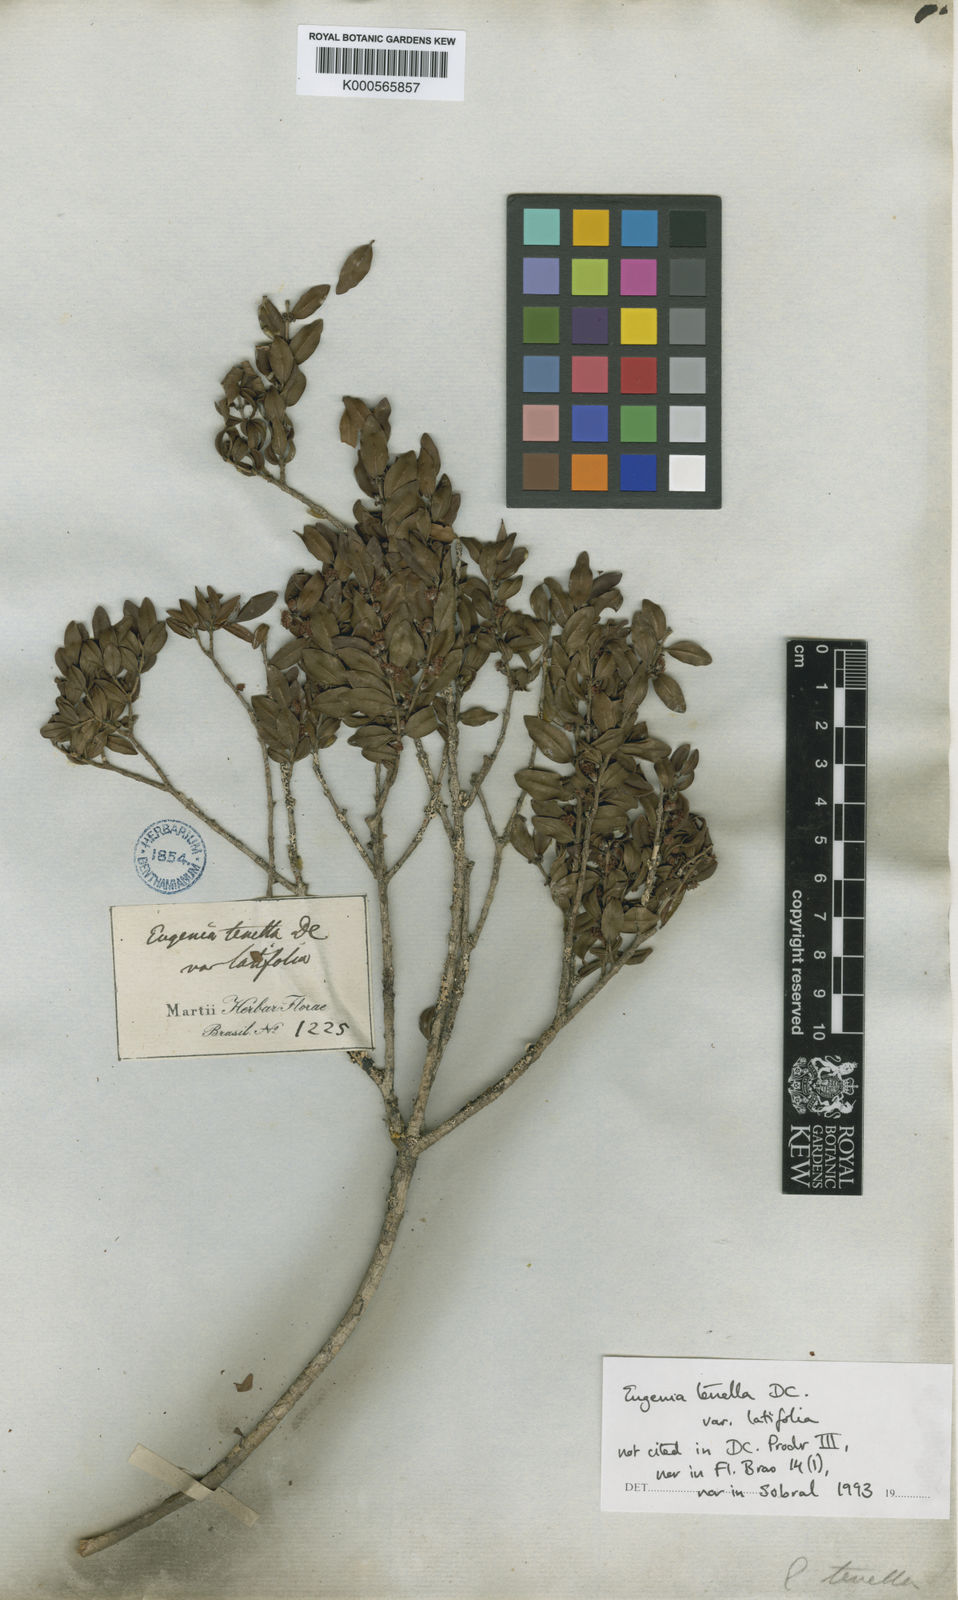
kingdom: Plantae
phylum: Tracheophyta
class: Magnoliopsida
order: Myrtales
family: Myrtaceae
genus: Myrciaria
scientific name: Myrciaria tenella
